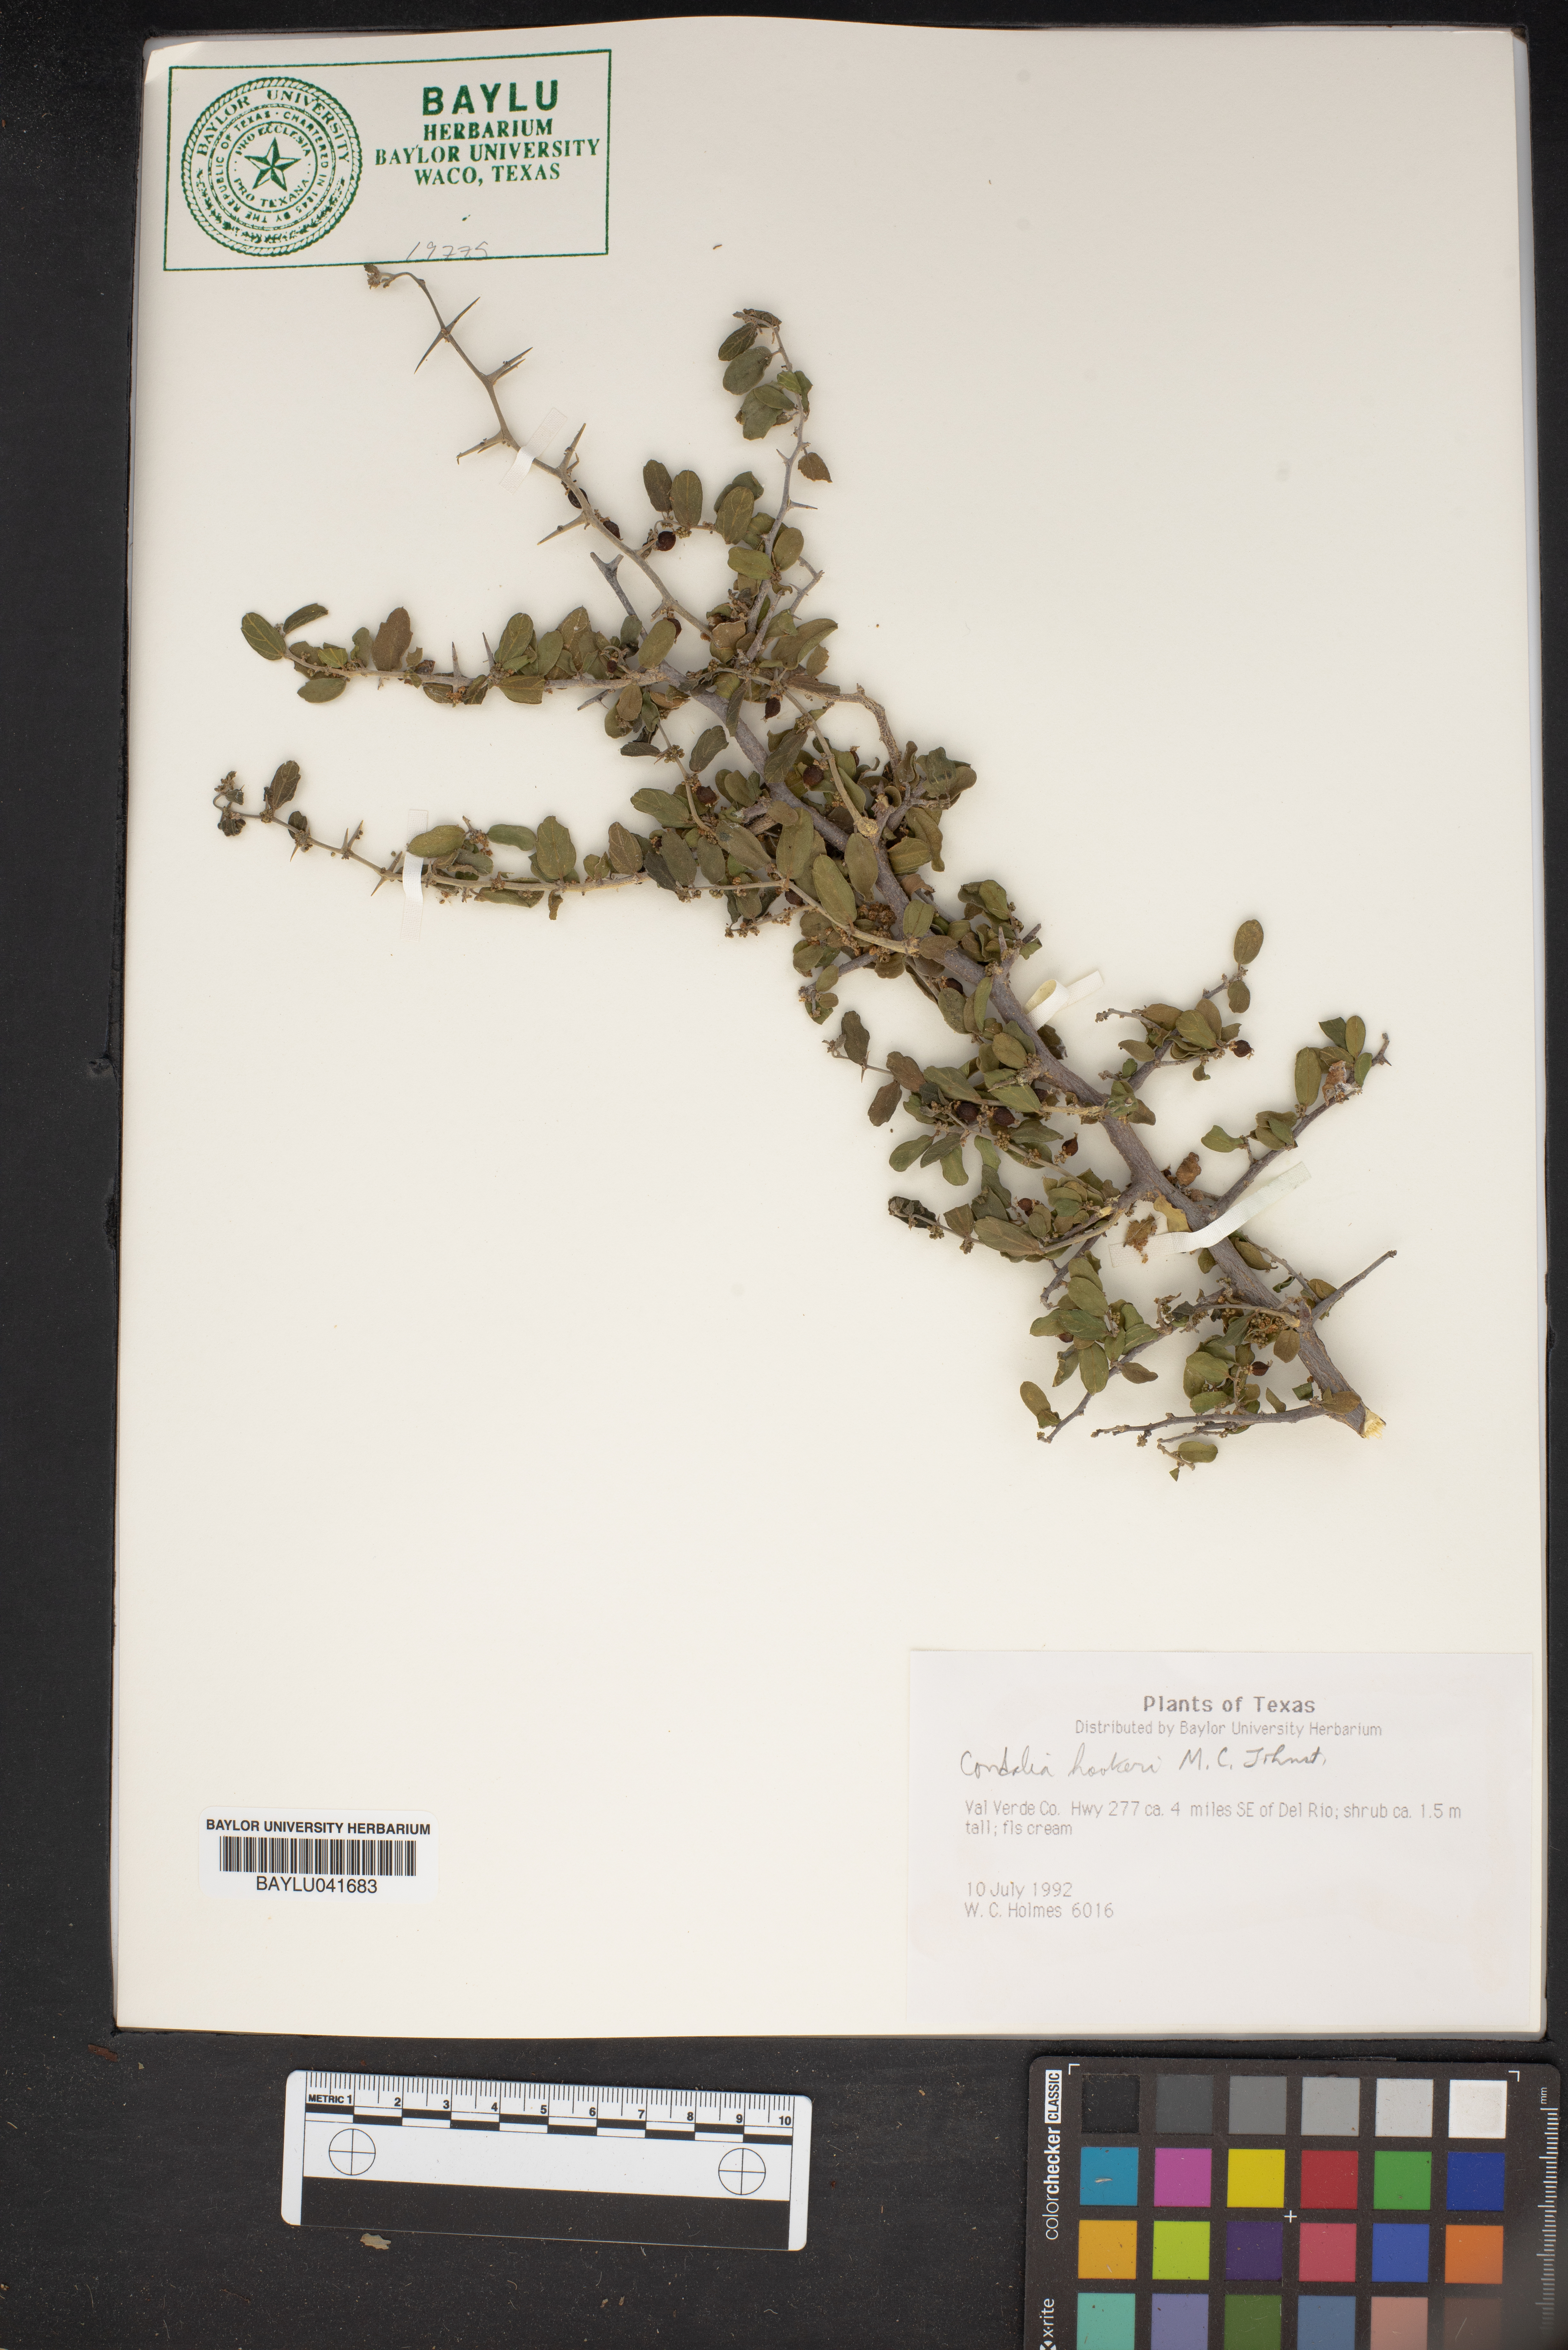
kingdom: Plantae
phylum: Tracheophyta
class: Magnoliopsida
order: Rosales
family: Rhamnaceae
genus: Condalia
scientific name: Condalia hookeri
